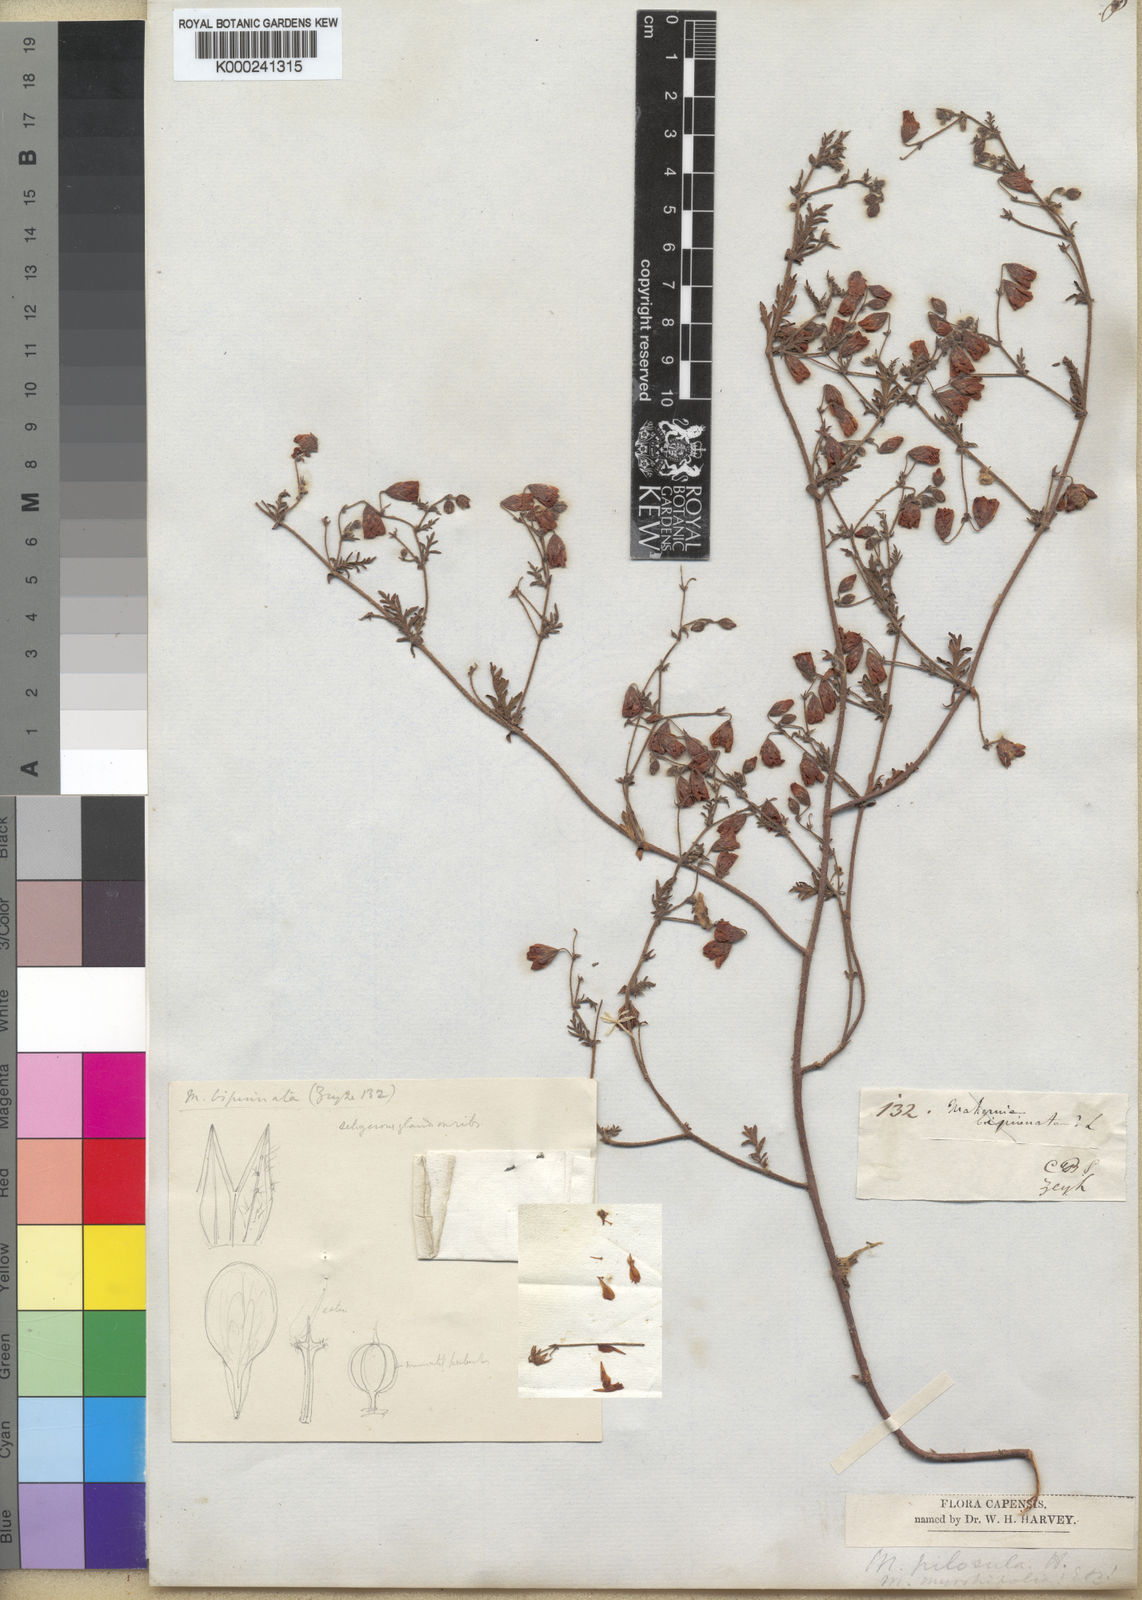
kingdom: Plantae
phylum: Tracheophyta
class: Magnoliopsida
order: Malvales
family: Malvaceae
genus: Hermannia
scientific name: Hermannia diffusa
